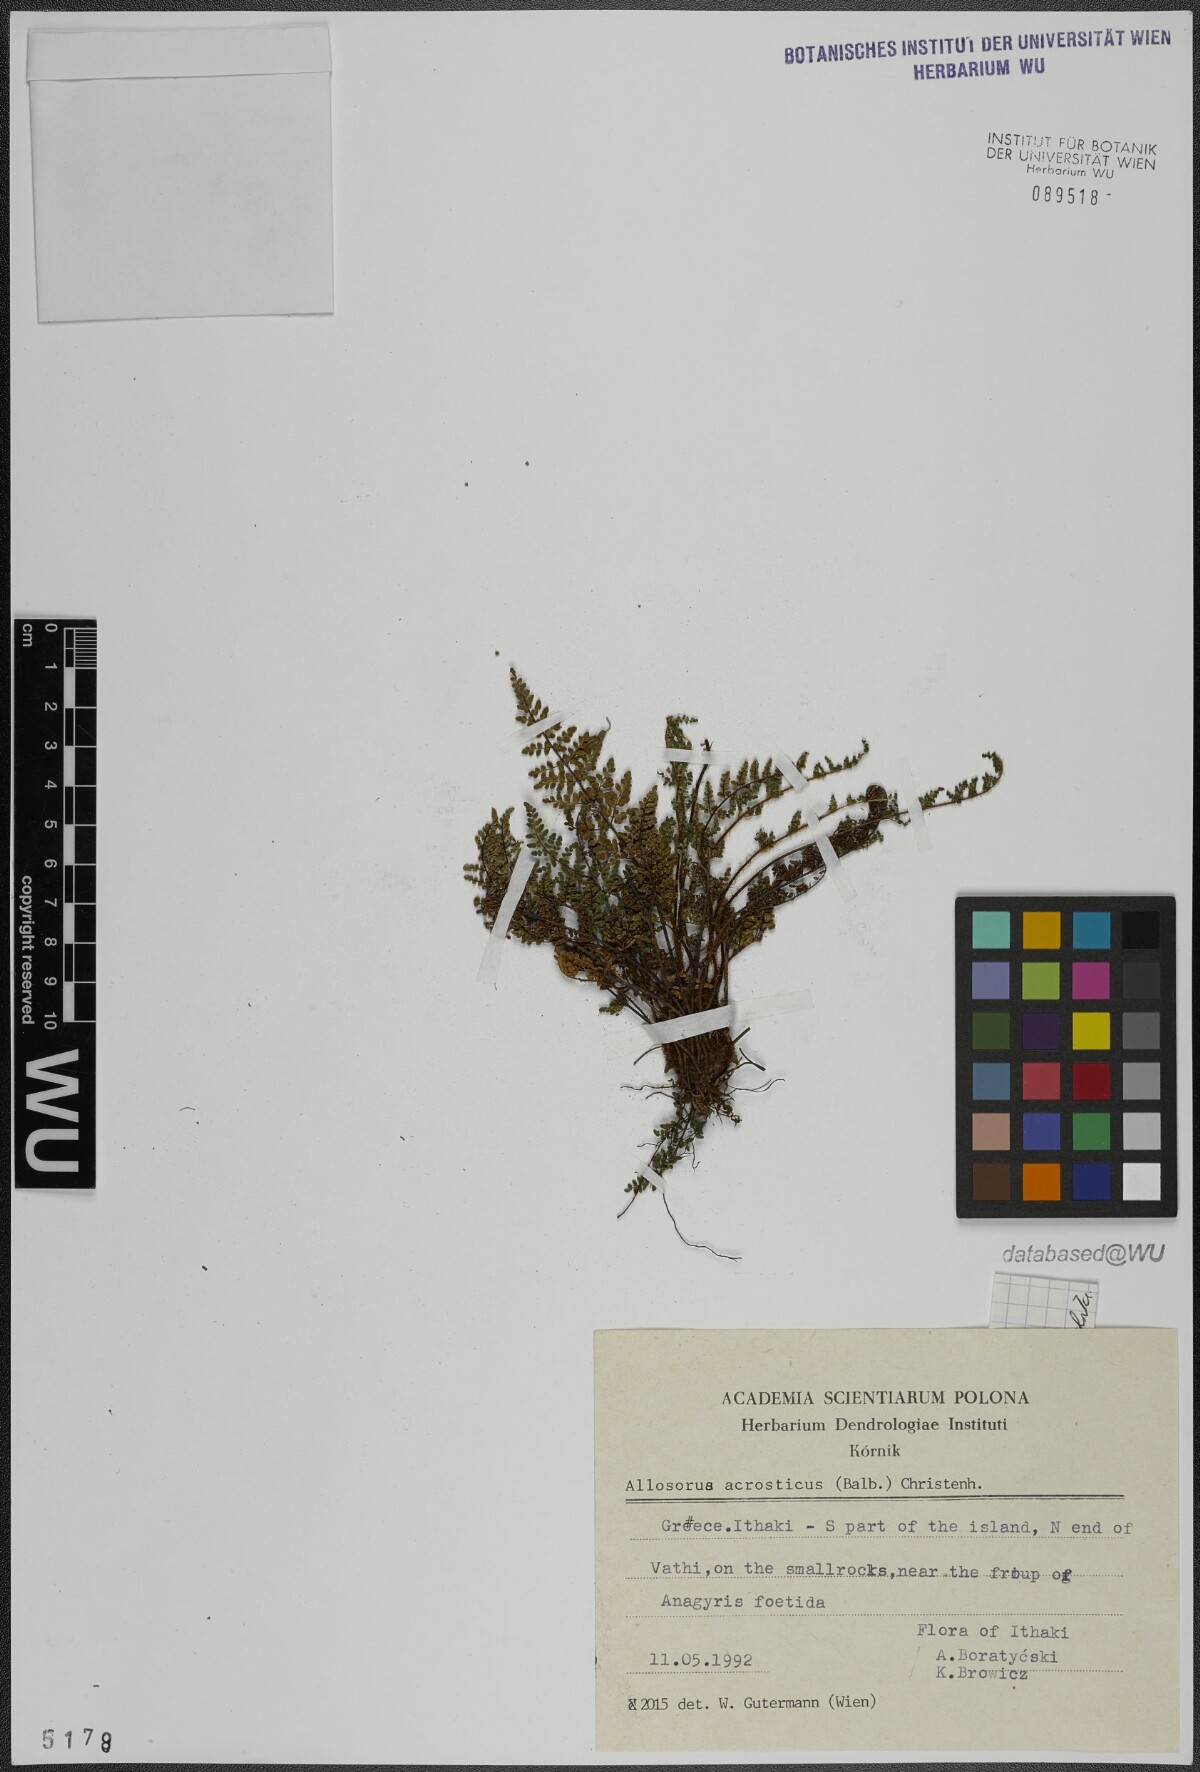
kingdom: Plantae
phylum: Tracheophyta
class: Polypodiopsida
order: Polypodiales
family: Pteridaceae
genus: Oeosporangium
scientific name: Oeosporangium pteridioides
